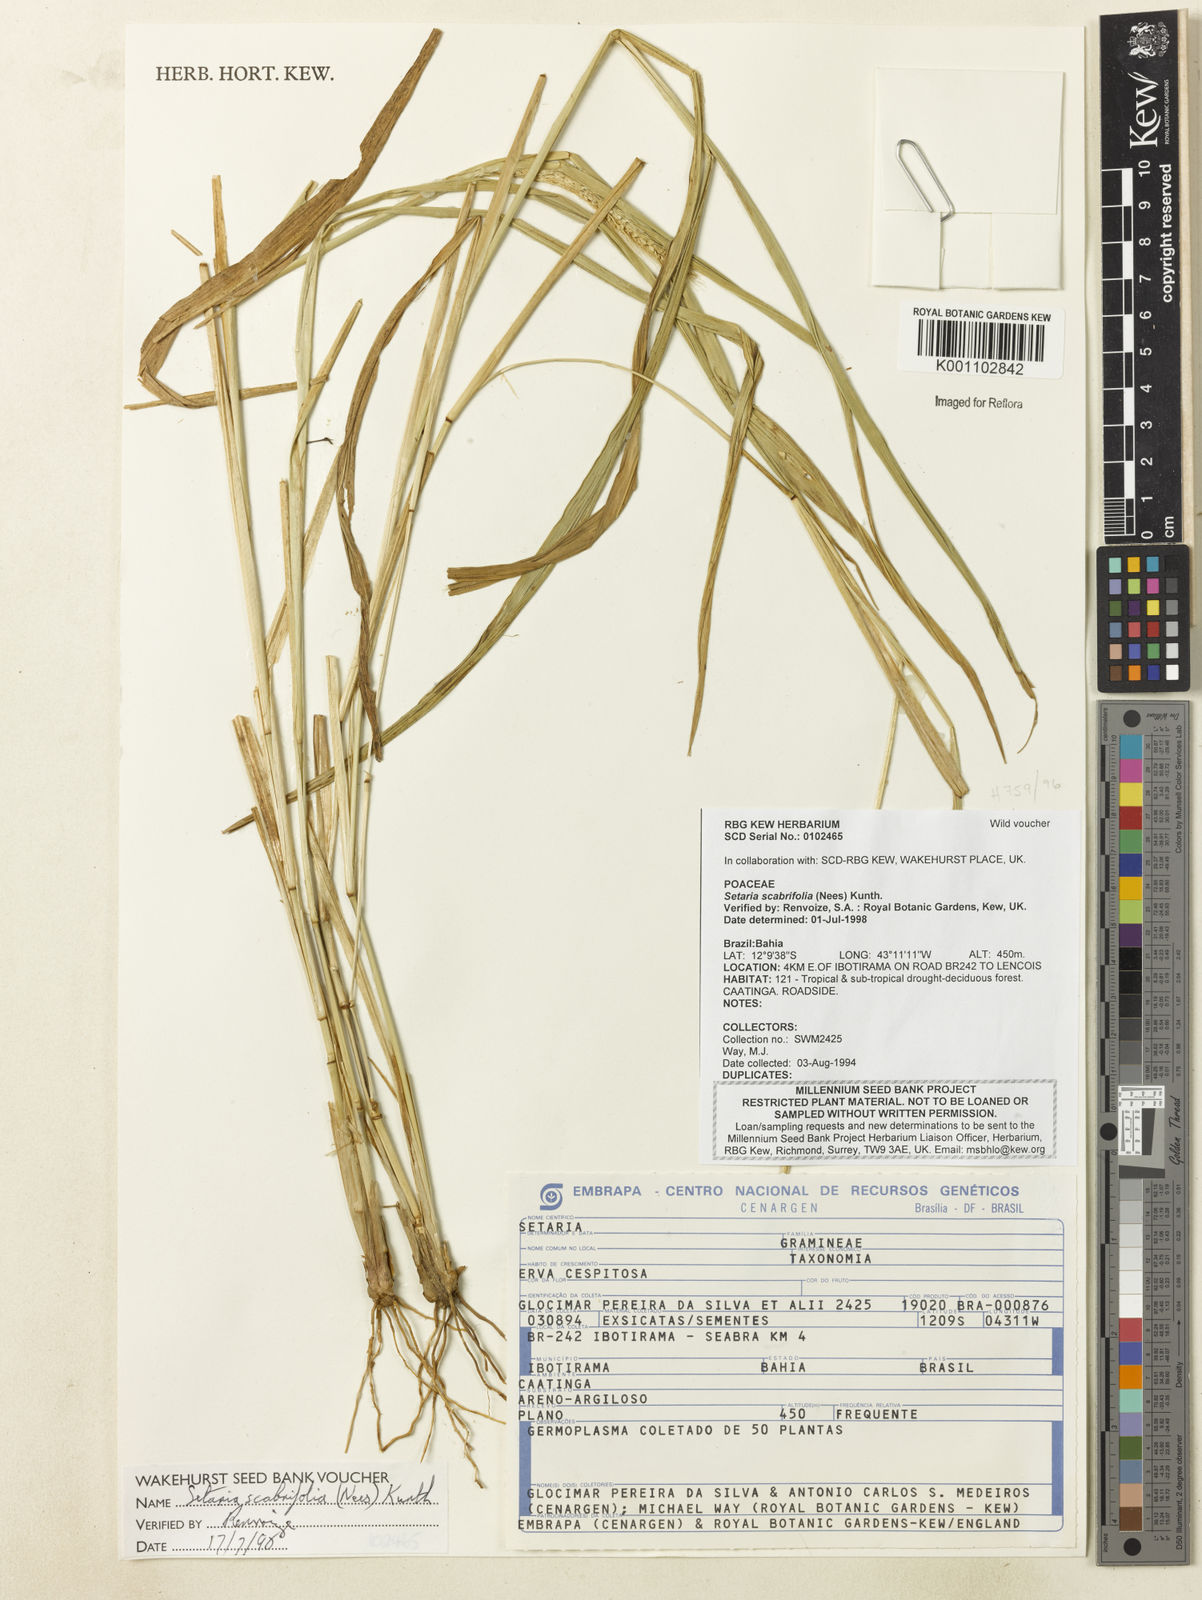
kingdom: Plantae
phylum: Tracheophyta
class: Liliopsida
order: Poales
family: Poaceae
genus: Setaria
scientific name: Setaria scabrifolia
